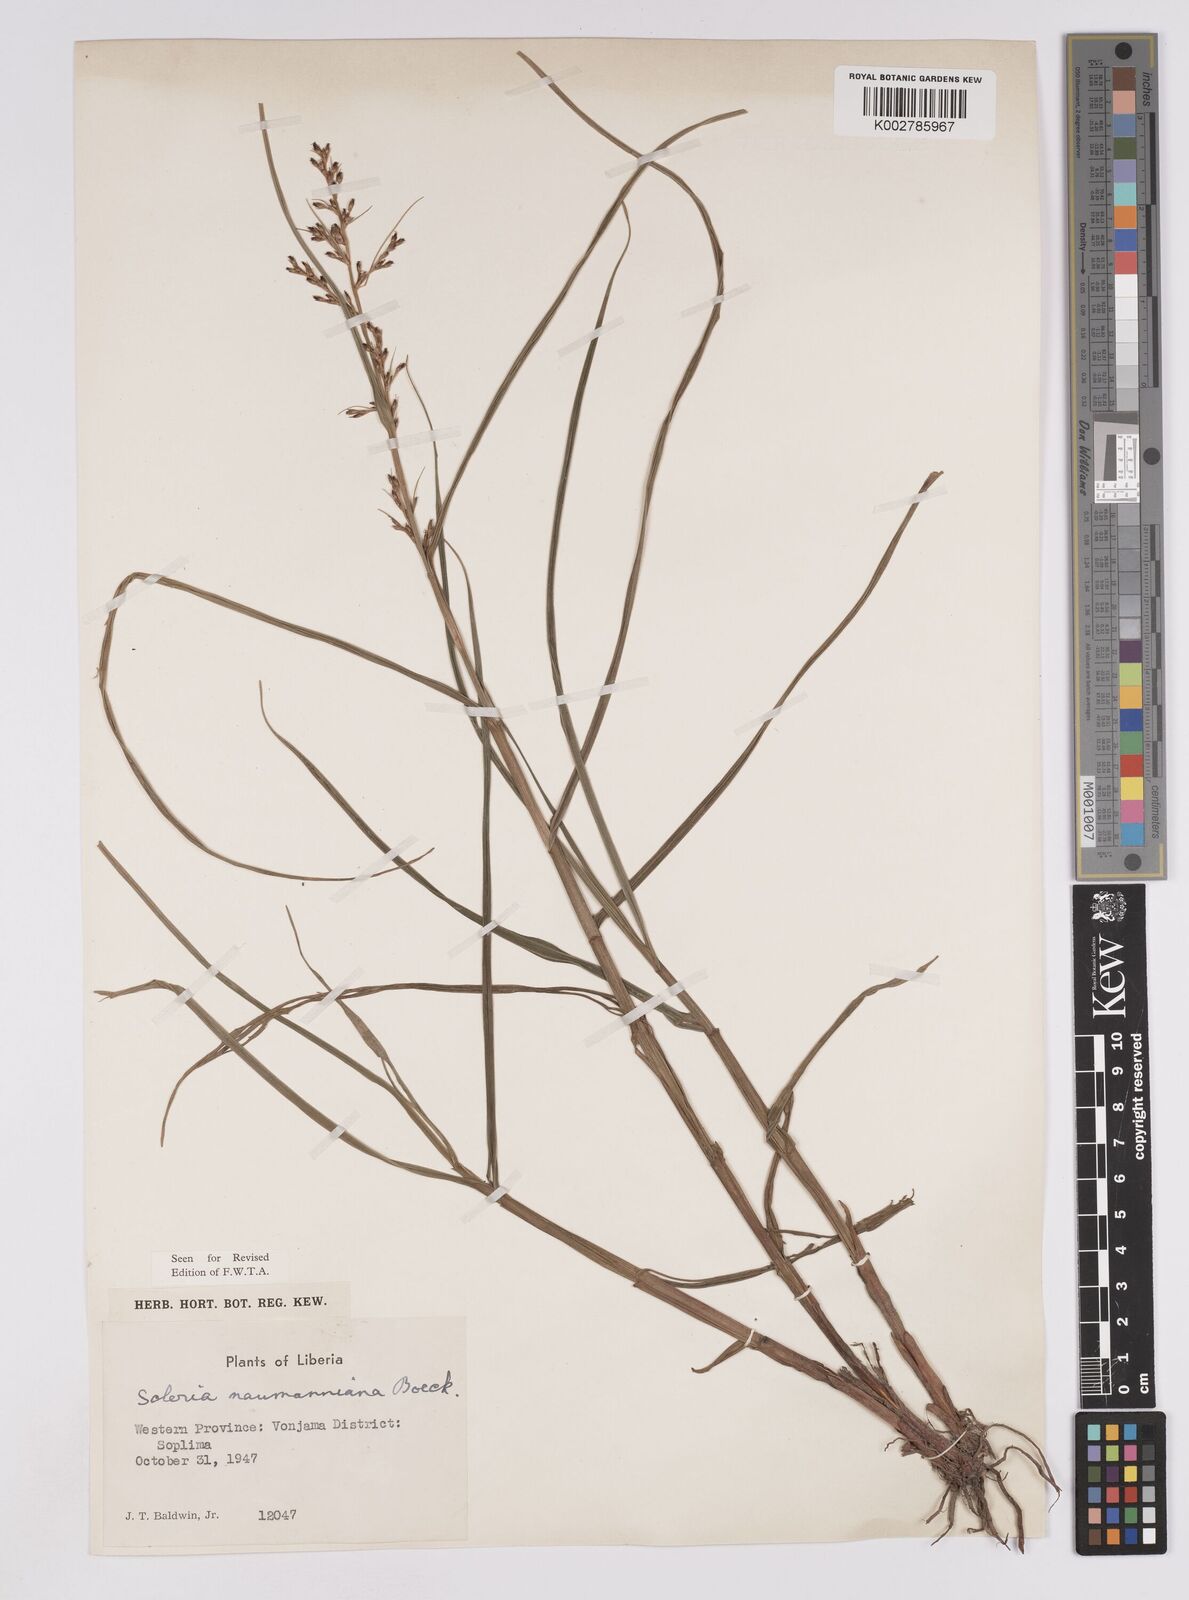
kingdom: Plantae
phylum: Tracheophyta
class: Liliopsida
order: Poales
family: Cyperaceae
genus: Scleria
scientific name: Scleria naumanniana
